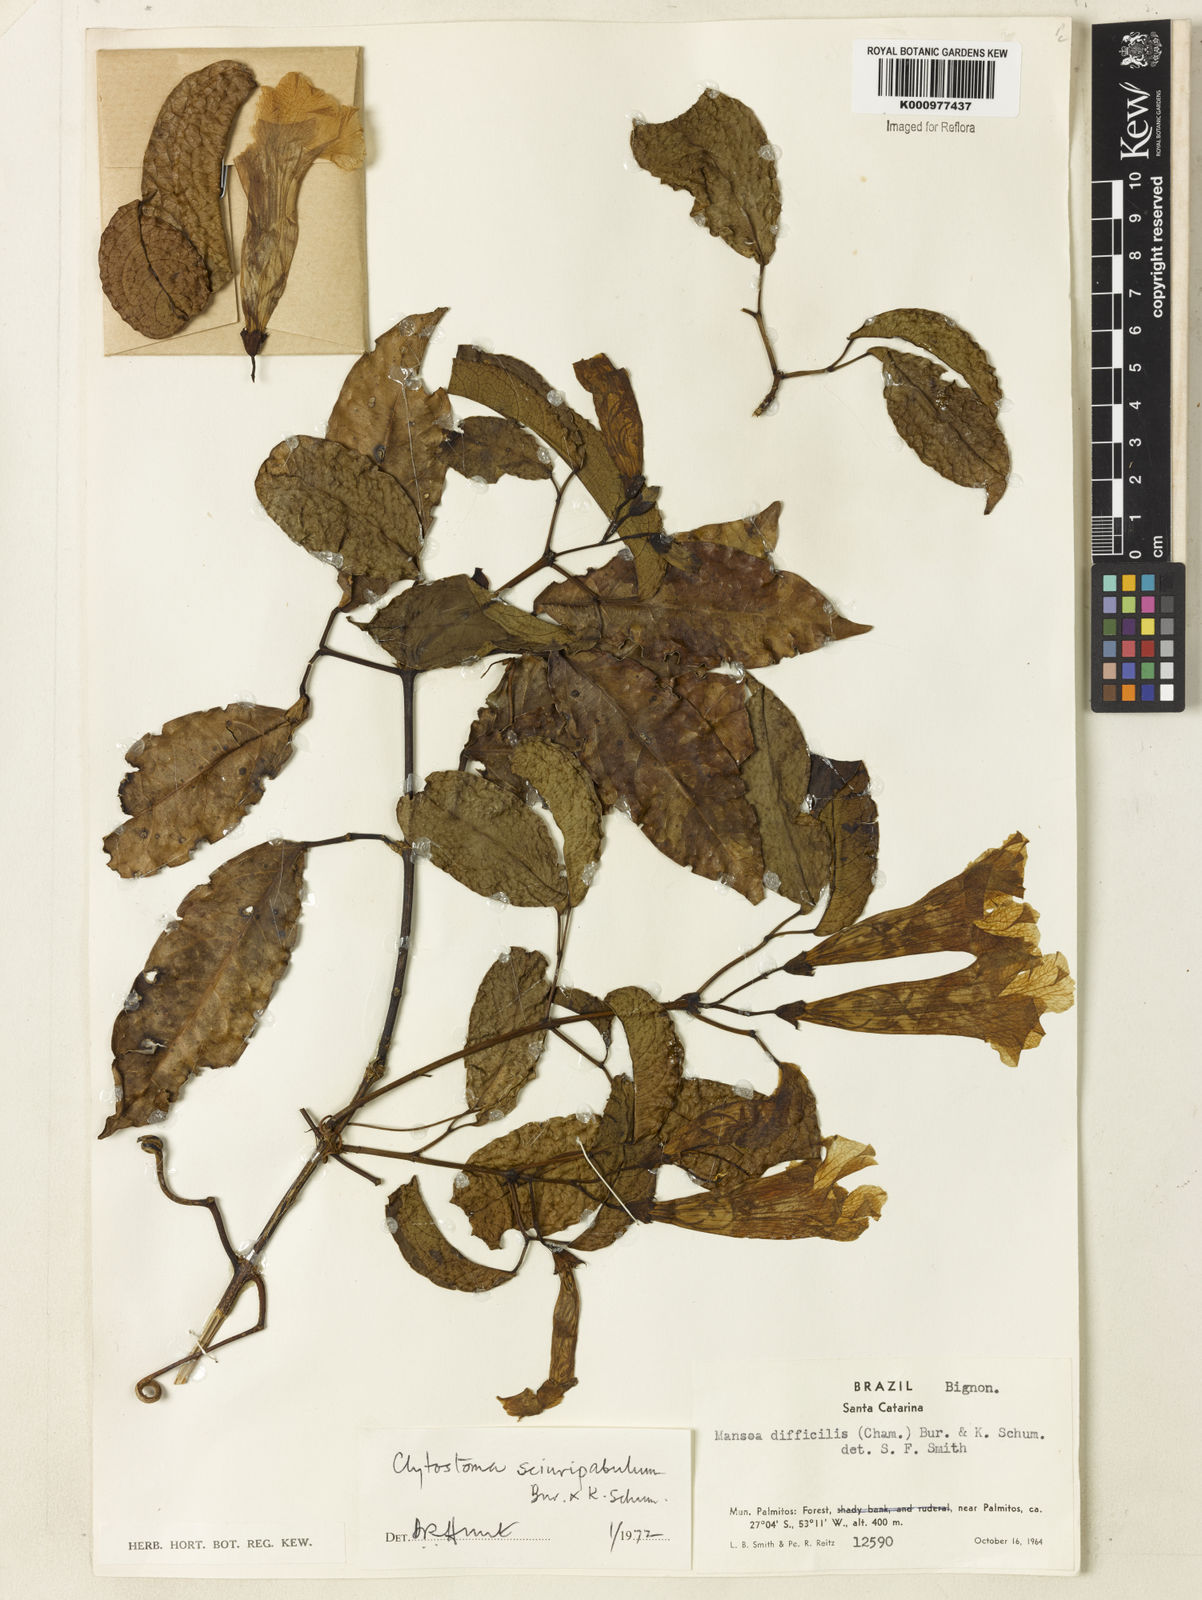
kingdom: Plantae
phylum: Tracheophyta
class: Magnoliopsida
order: Lamiales
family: Bignoniaceae
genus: Bignonia
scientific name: Bignonia
